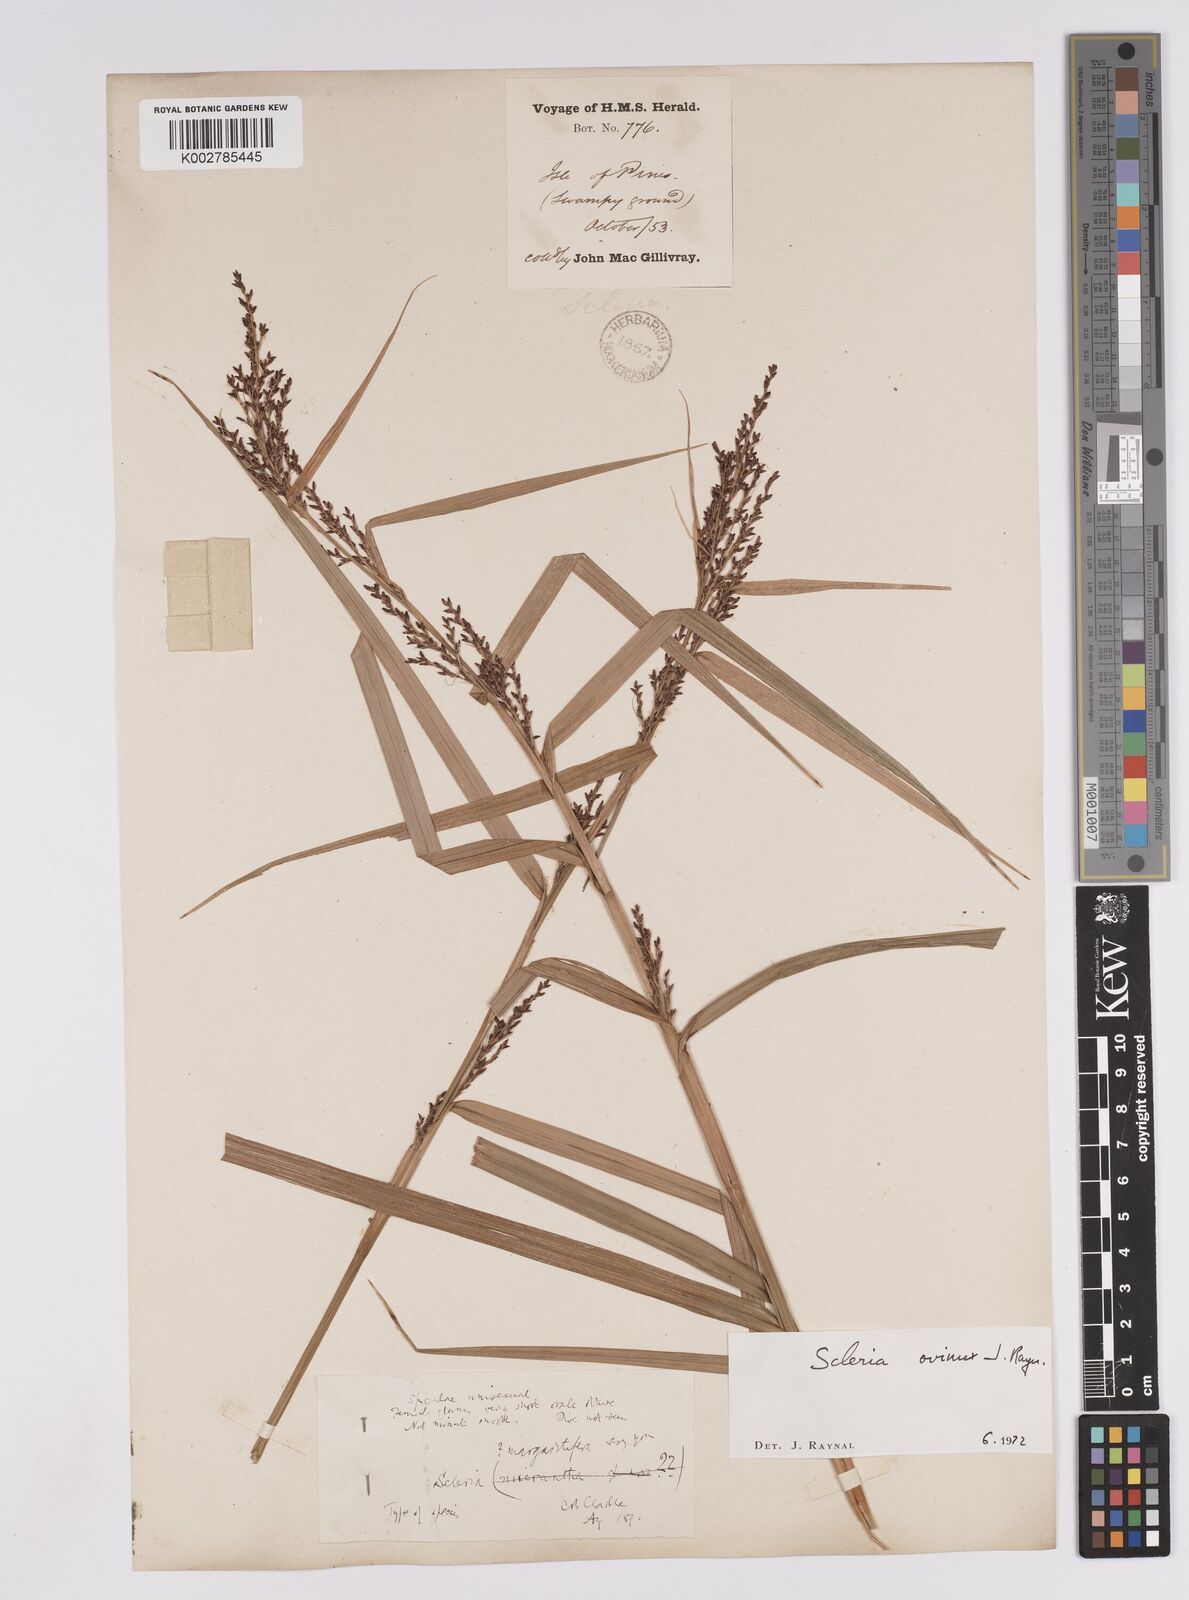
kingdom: Plantae
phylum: Tracheophyta
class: Liliopsida
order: Poales
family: Cyperaceae
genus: Scleria
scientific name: Scleria ovinux
